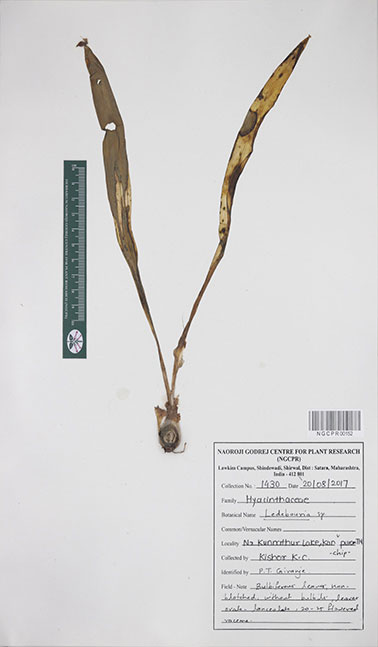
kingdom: Plantae
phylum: Tracheophyta
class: Liliopsida
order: Asparagales
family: Asparagaceae
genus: Ledebouria
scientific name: Ledebouria
